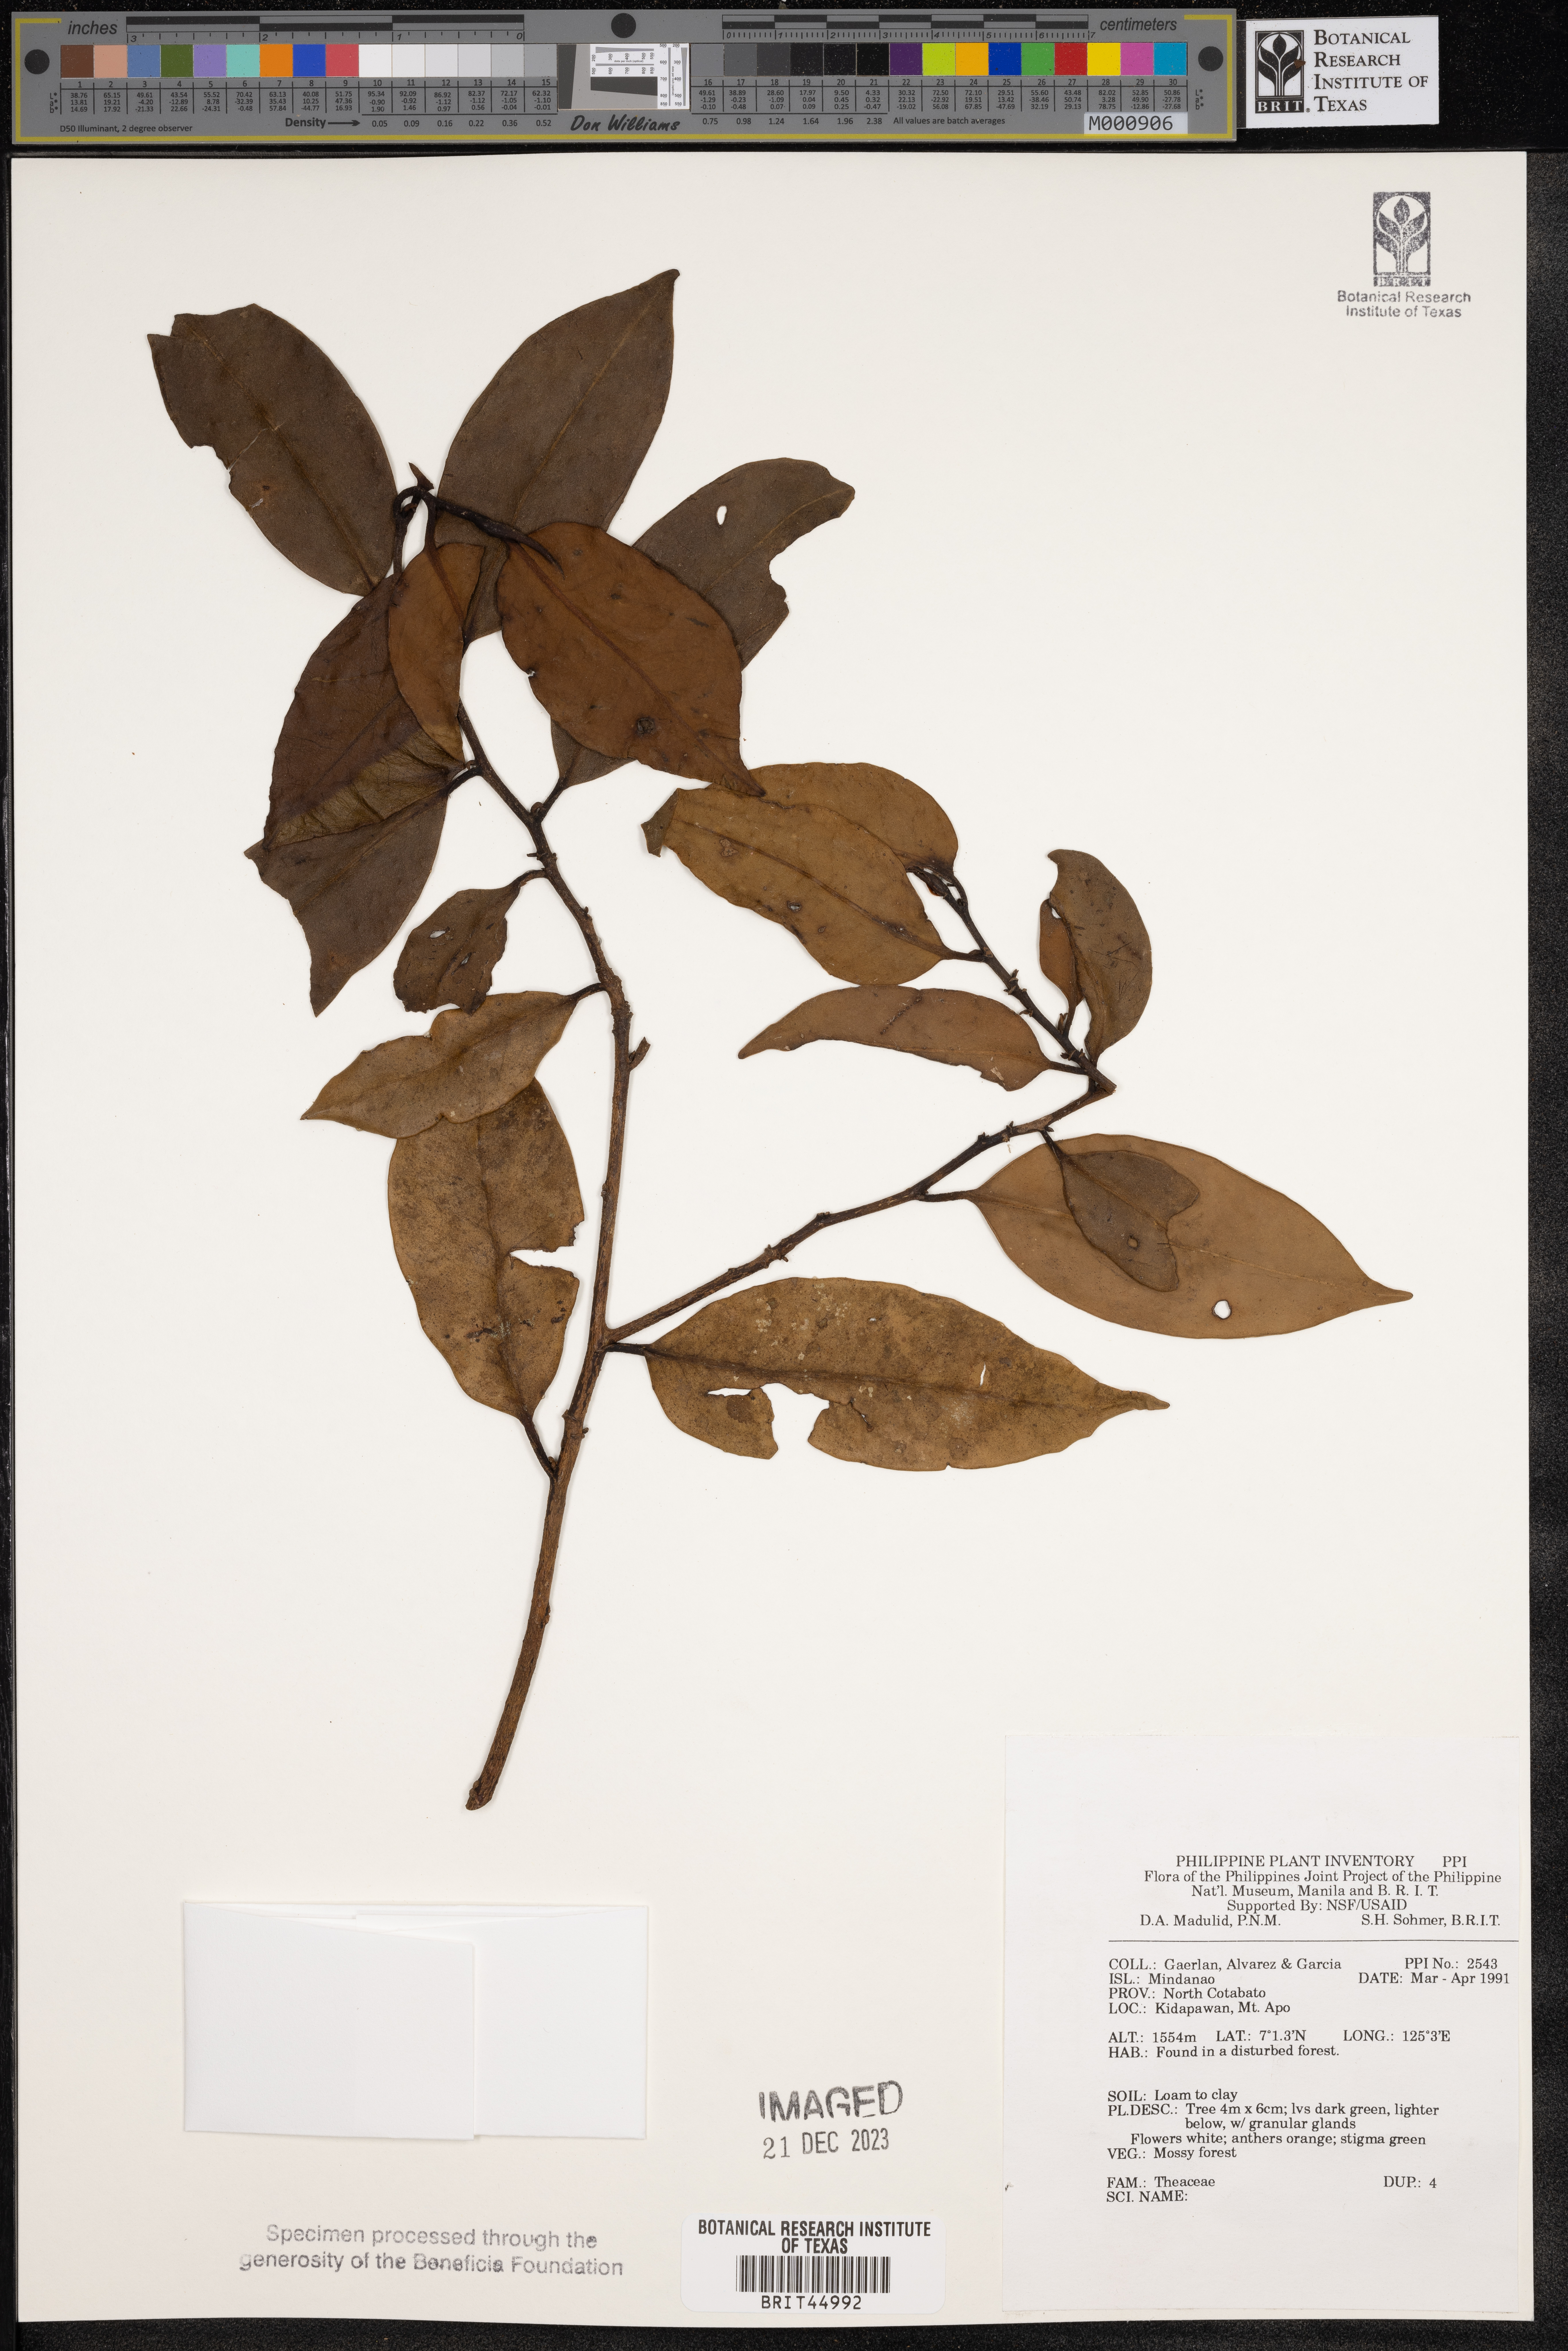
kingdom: Plantae
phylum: Tracheophyta
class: Magnoliopsida
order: Ericales
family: Theaceae
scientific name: Theaceae
